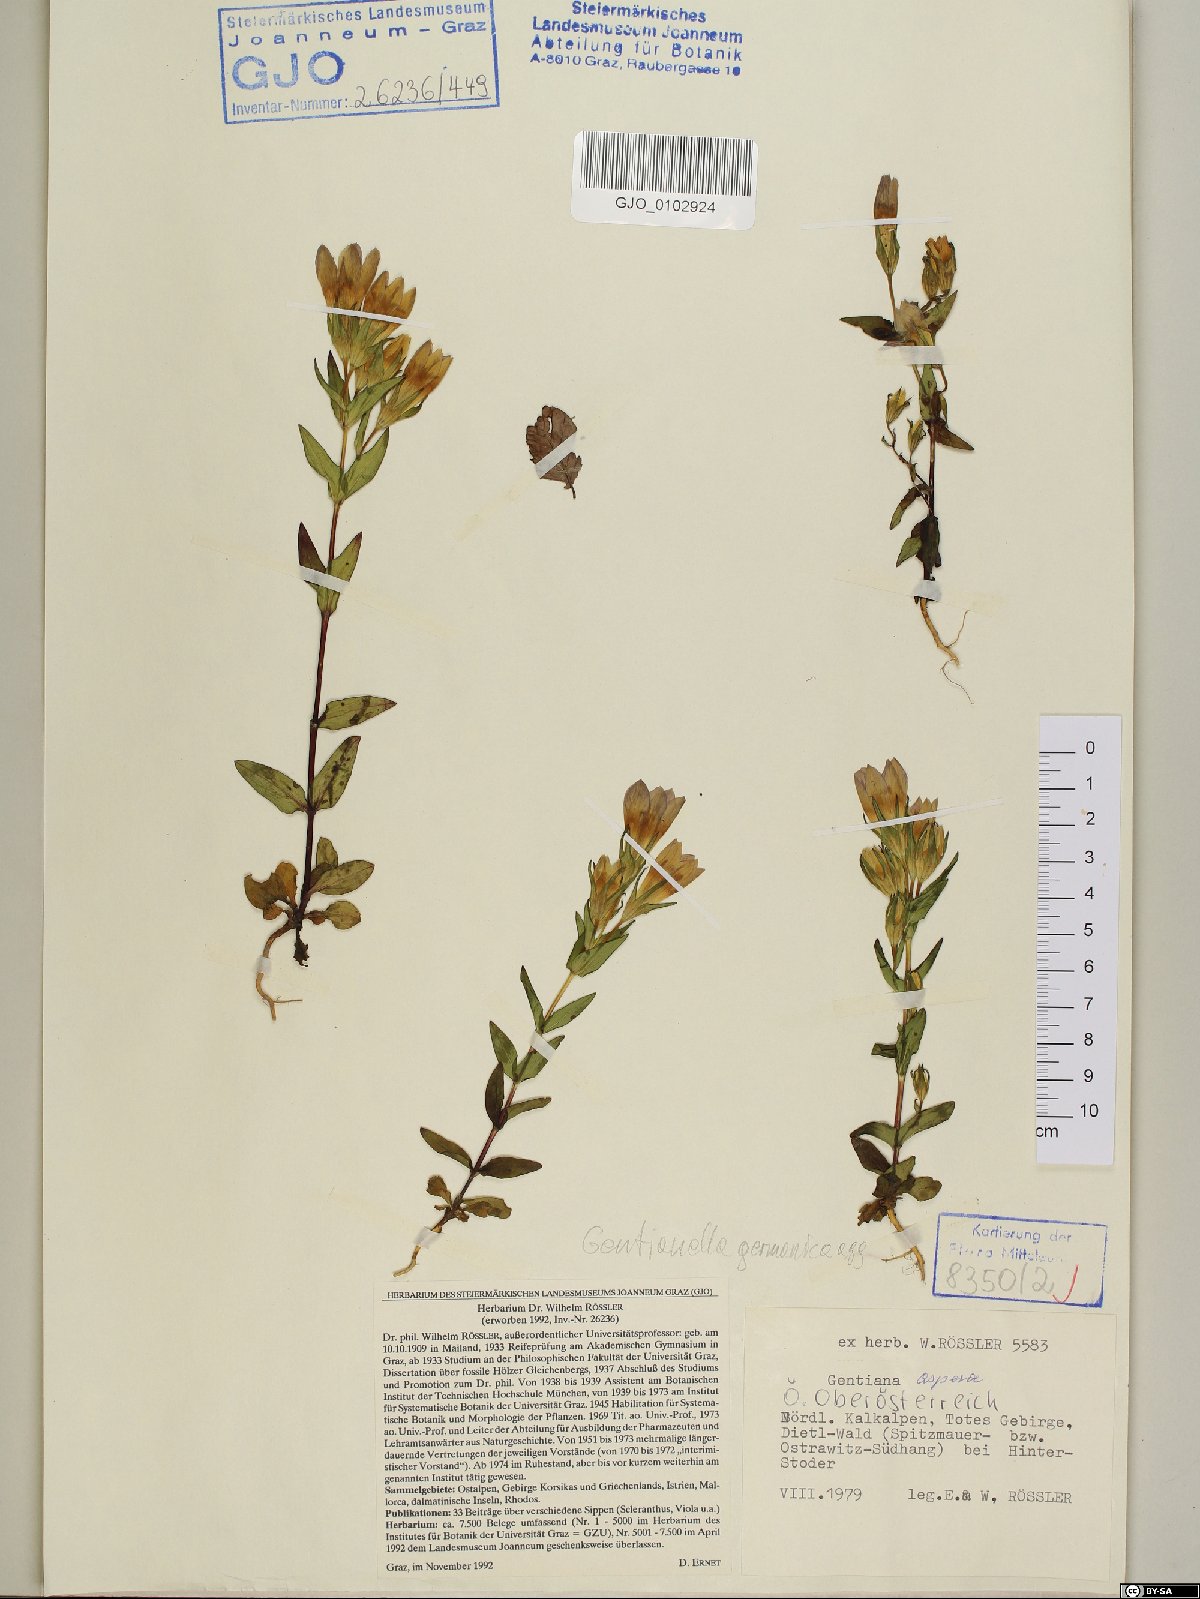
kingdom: Plantae
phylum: Tracheophyta
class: Magnoliopsida
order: Gentianales
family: Gentianaceae
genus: Gentianella
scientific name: Gentianella obtusifolia
